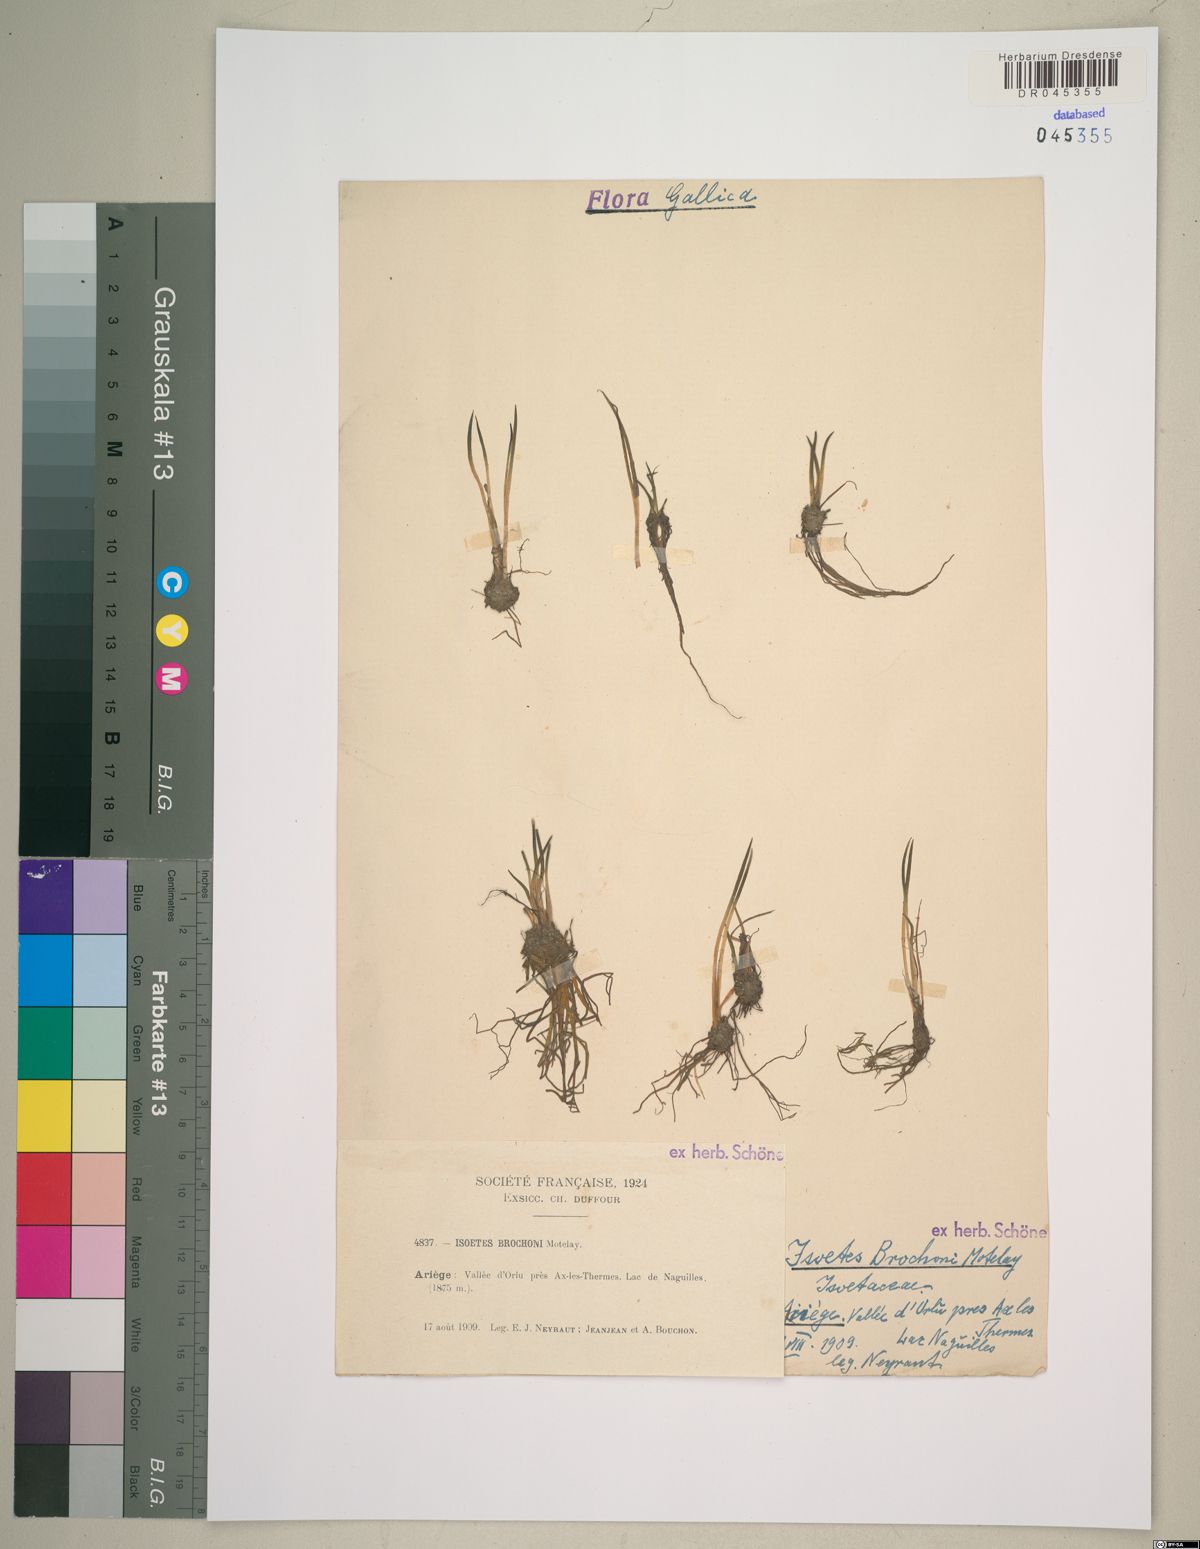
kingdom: Plantae
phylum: Tracheophyta
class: Lycopodiopsida
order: Isoetales
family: Isoetaceae
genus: Isoetes
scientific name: Isoetes lacustris
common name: Common quillwort
